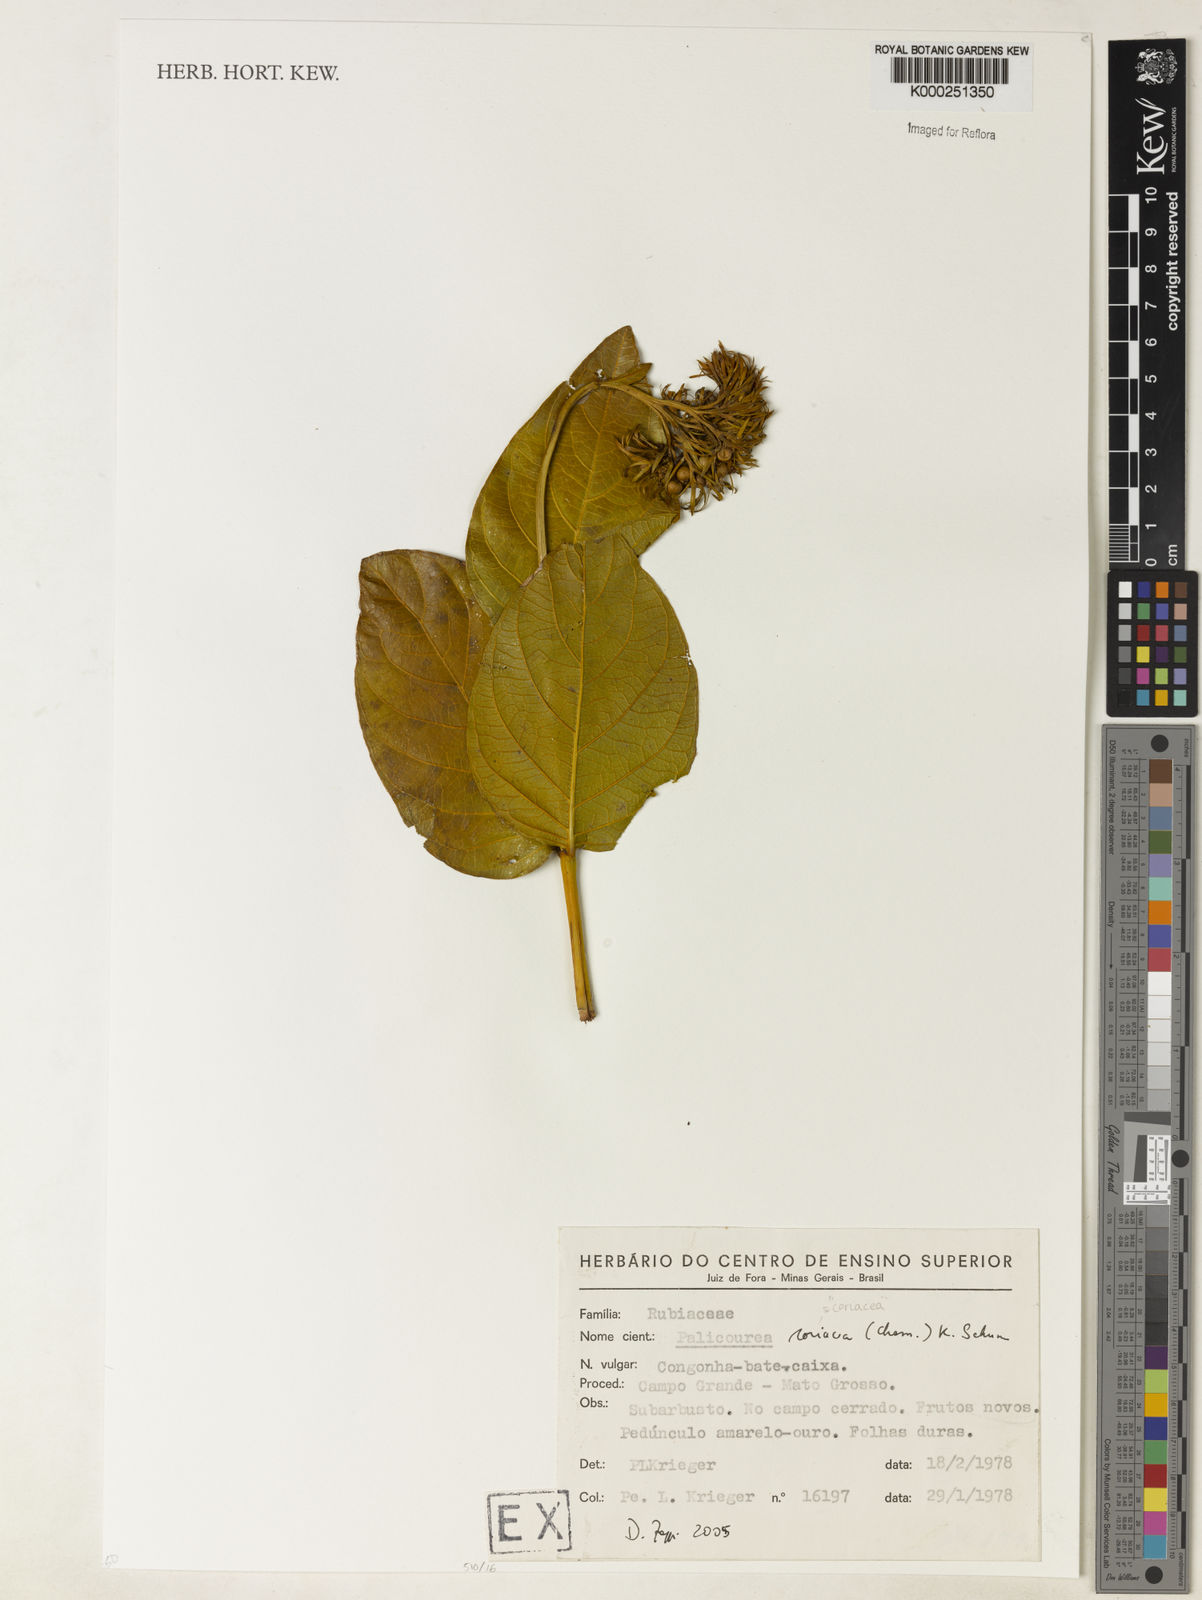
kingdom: Plantae
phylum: Tracheophyta
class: Magnoliopsida
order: Gentianales
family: Rubiaceae
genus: Palicourea
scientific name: Palicourea coriacea
